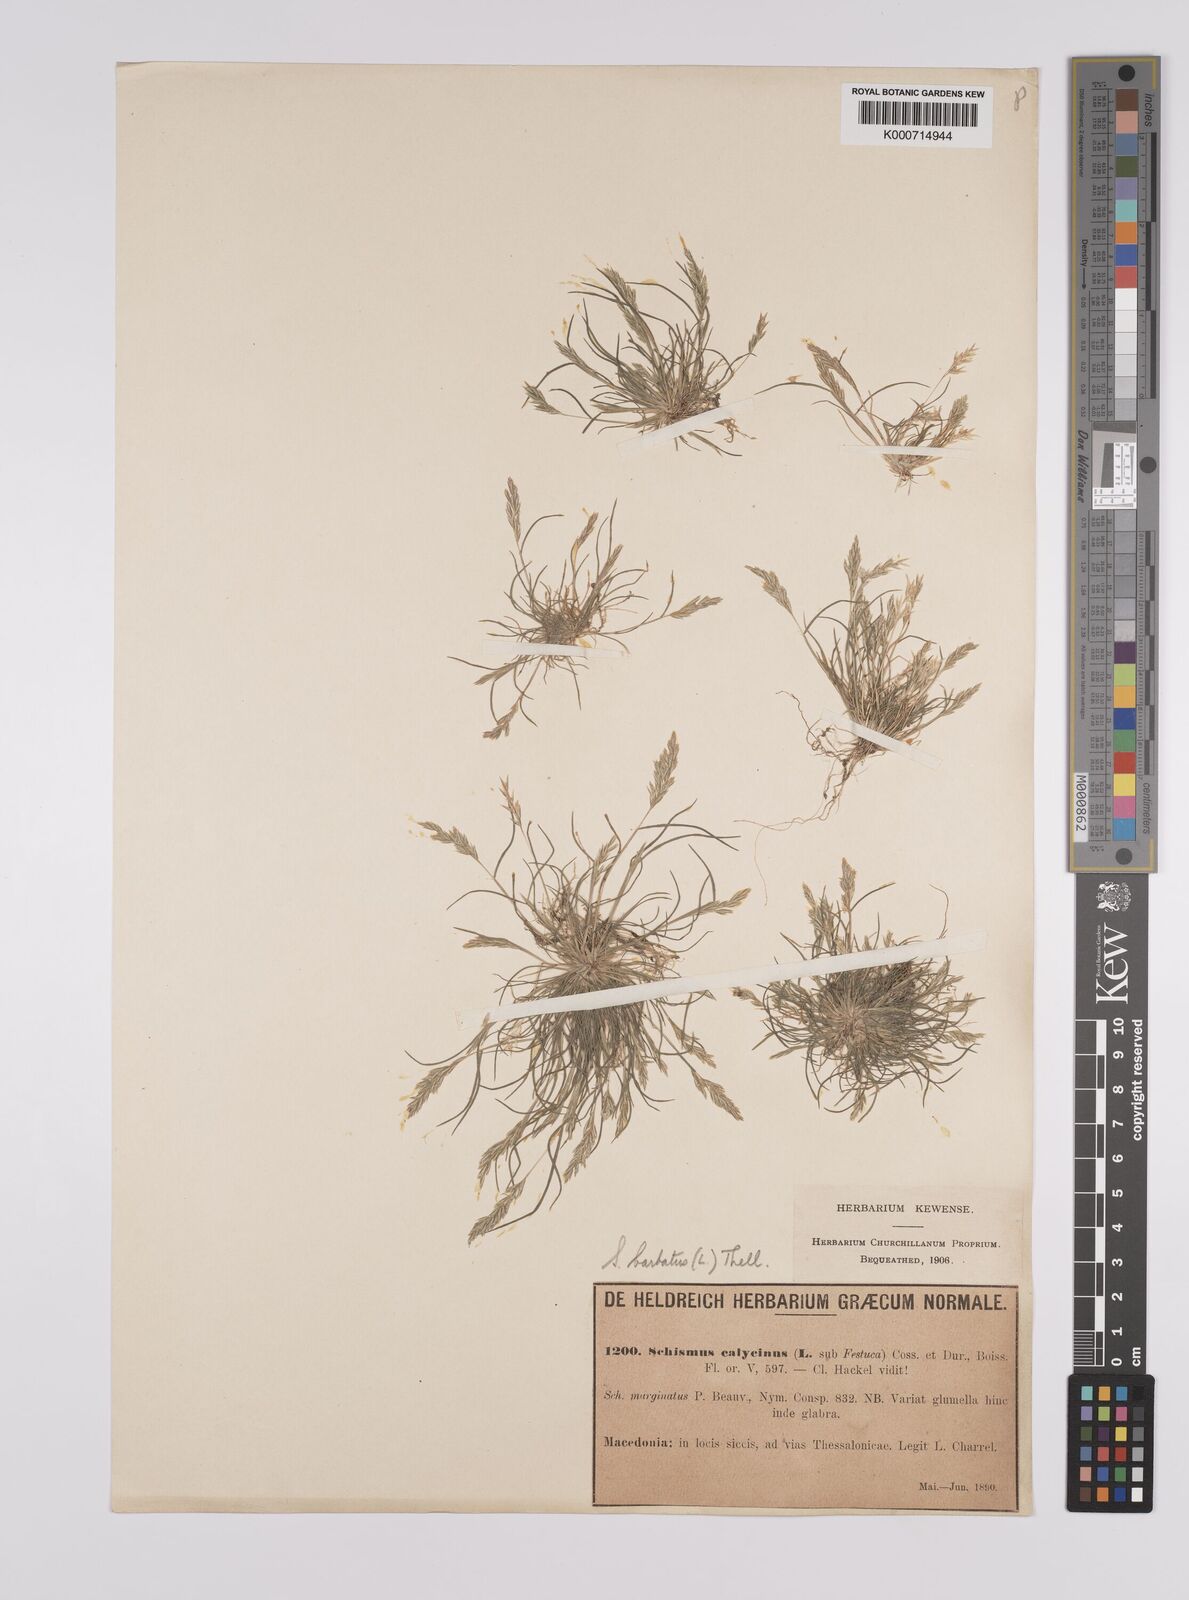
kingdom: Plantae
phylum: Tracheophyta
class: Liliopsida
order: Poales
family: Poaceae
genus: Schismus
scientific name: Schismus barbatus
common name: Kelch-grass
